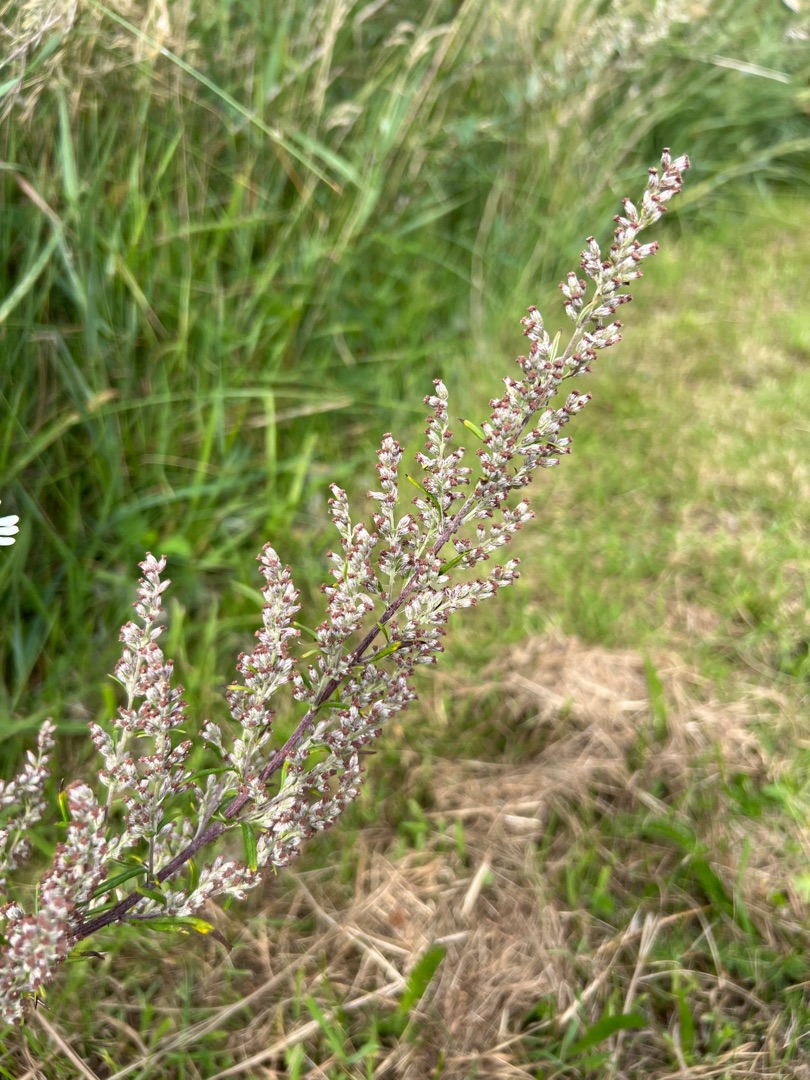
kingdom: Plantae
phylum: Tracheophyta
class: Magnoliopsida
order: Asterales
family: Asteraceae
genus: Artemisia
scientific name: Artemisia vulgaris
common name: Grå-bynke
